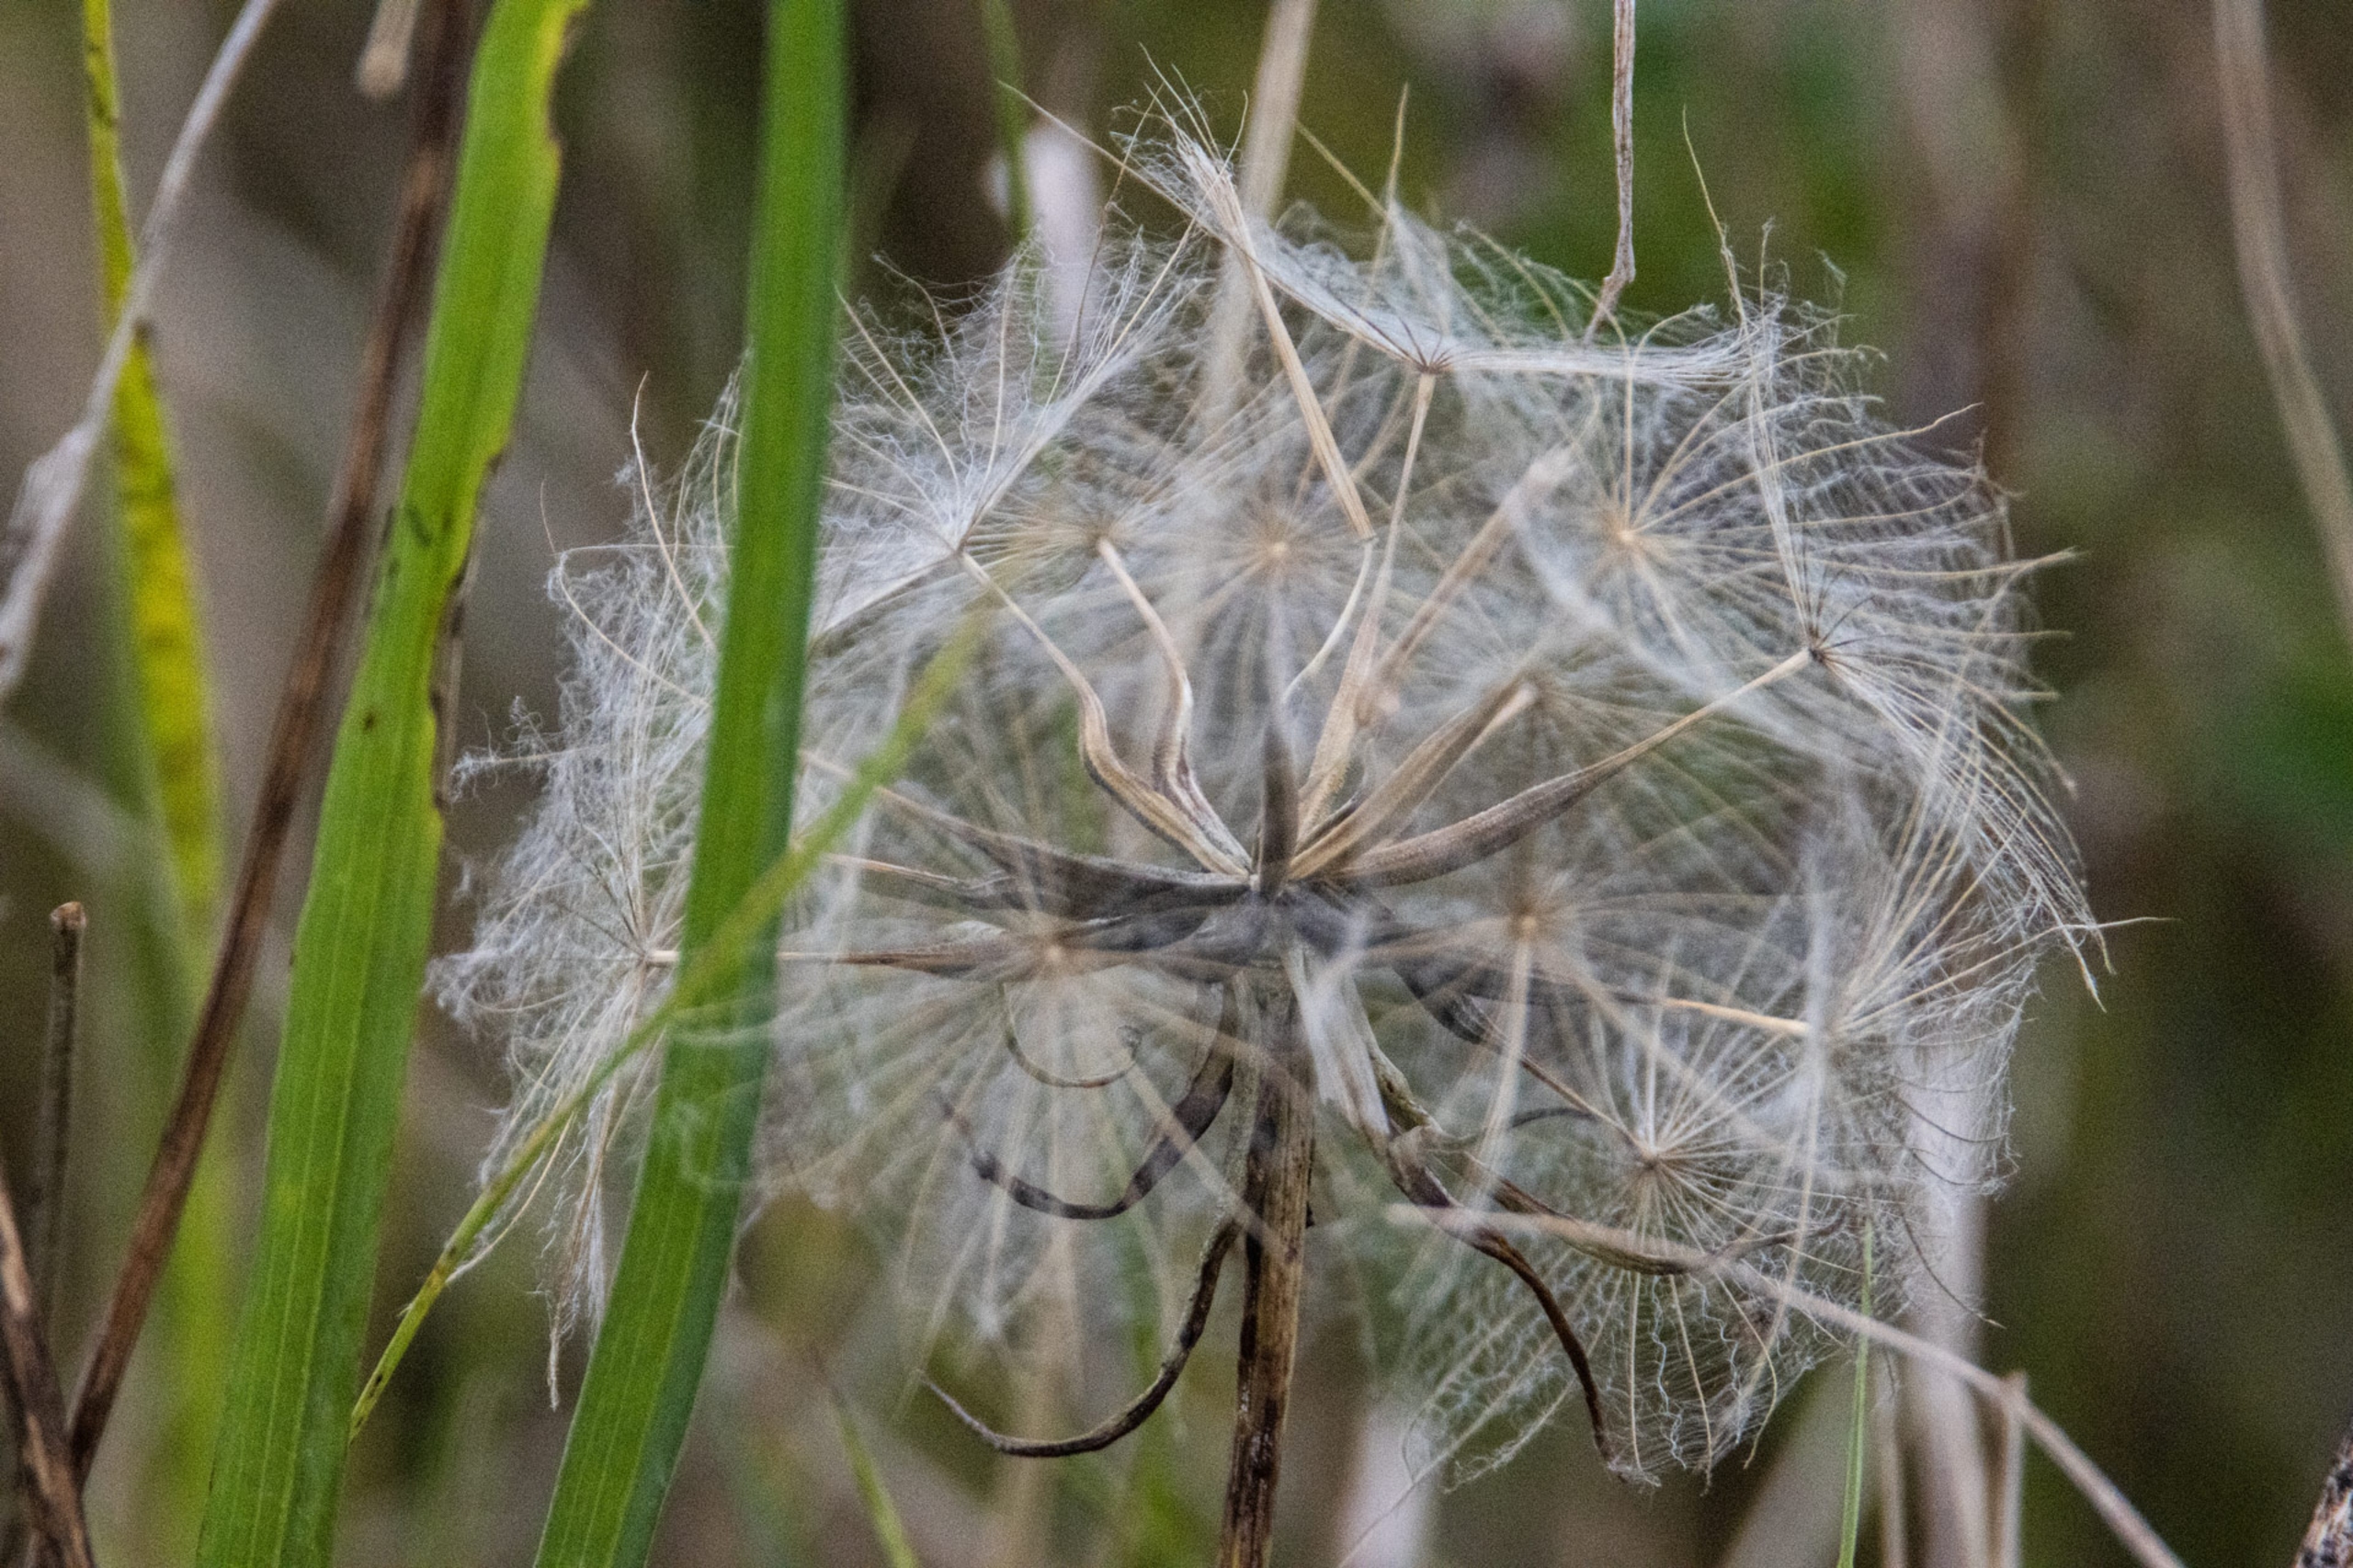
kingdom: Plantae
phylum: Tracheophyta
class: Magnoliopsida
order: Asterales
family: Asteraceae
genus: Tragopogon
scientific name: Tragopogon pratensis
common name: Gedeskæg
